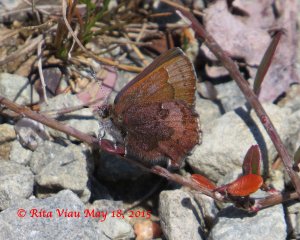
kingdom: Animalia
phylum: Arthropoda
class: Insecta
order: Lepidoptera
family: Lycaenidae
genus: Incisalia
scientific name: Incisalia irioides
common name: Brown Elfin
